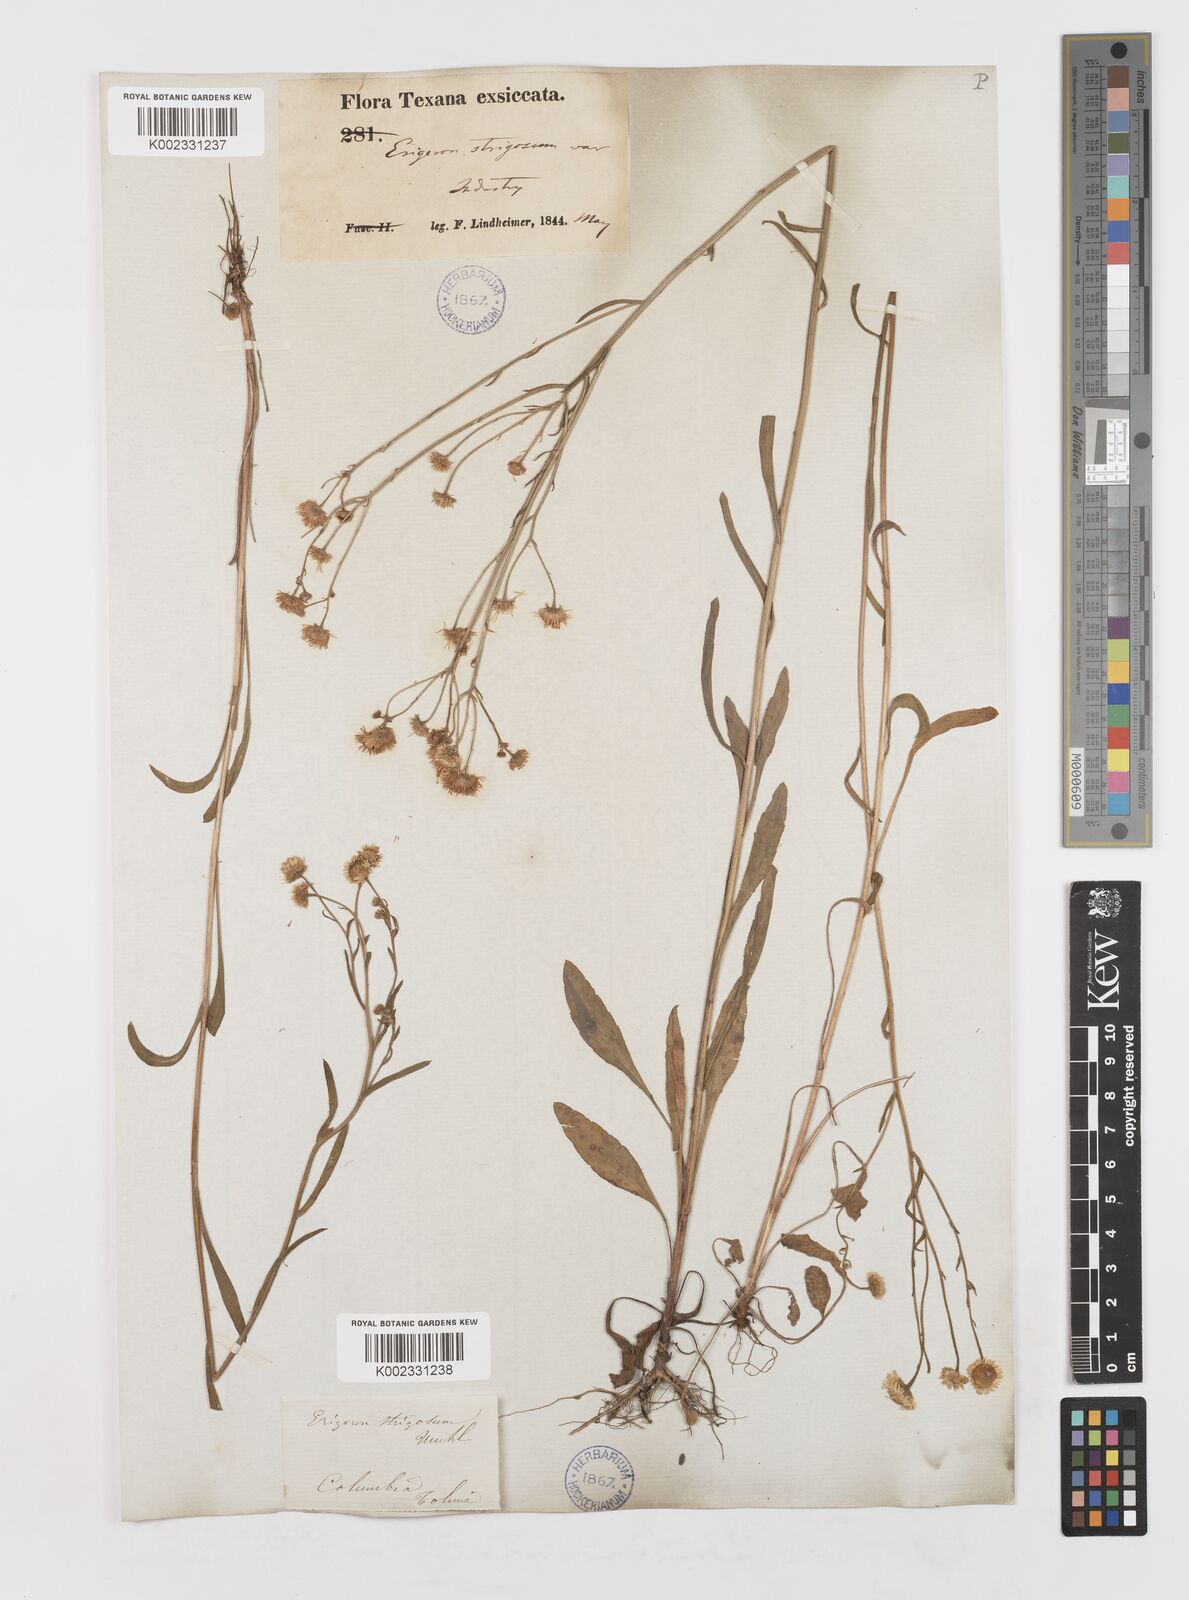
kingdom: Plantae
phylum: Tracheophyta
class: Magnoliopsida
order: Asterales
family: Asteraceae
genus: Erigeron
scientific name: Erigeron strigosus
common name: Common eastern fleabane
